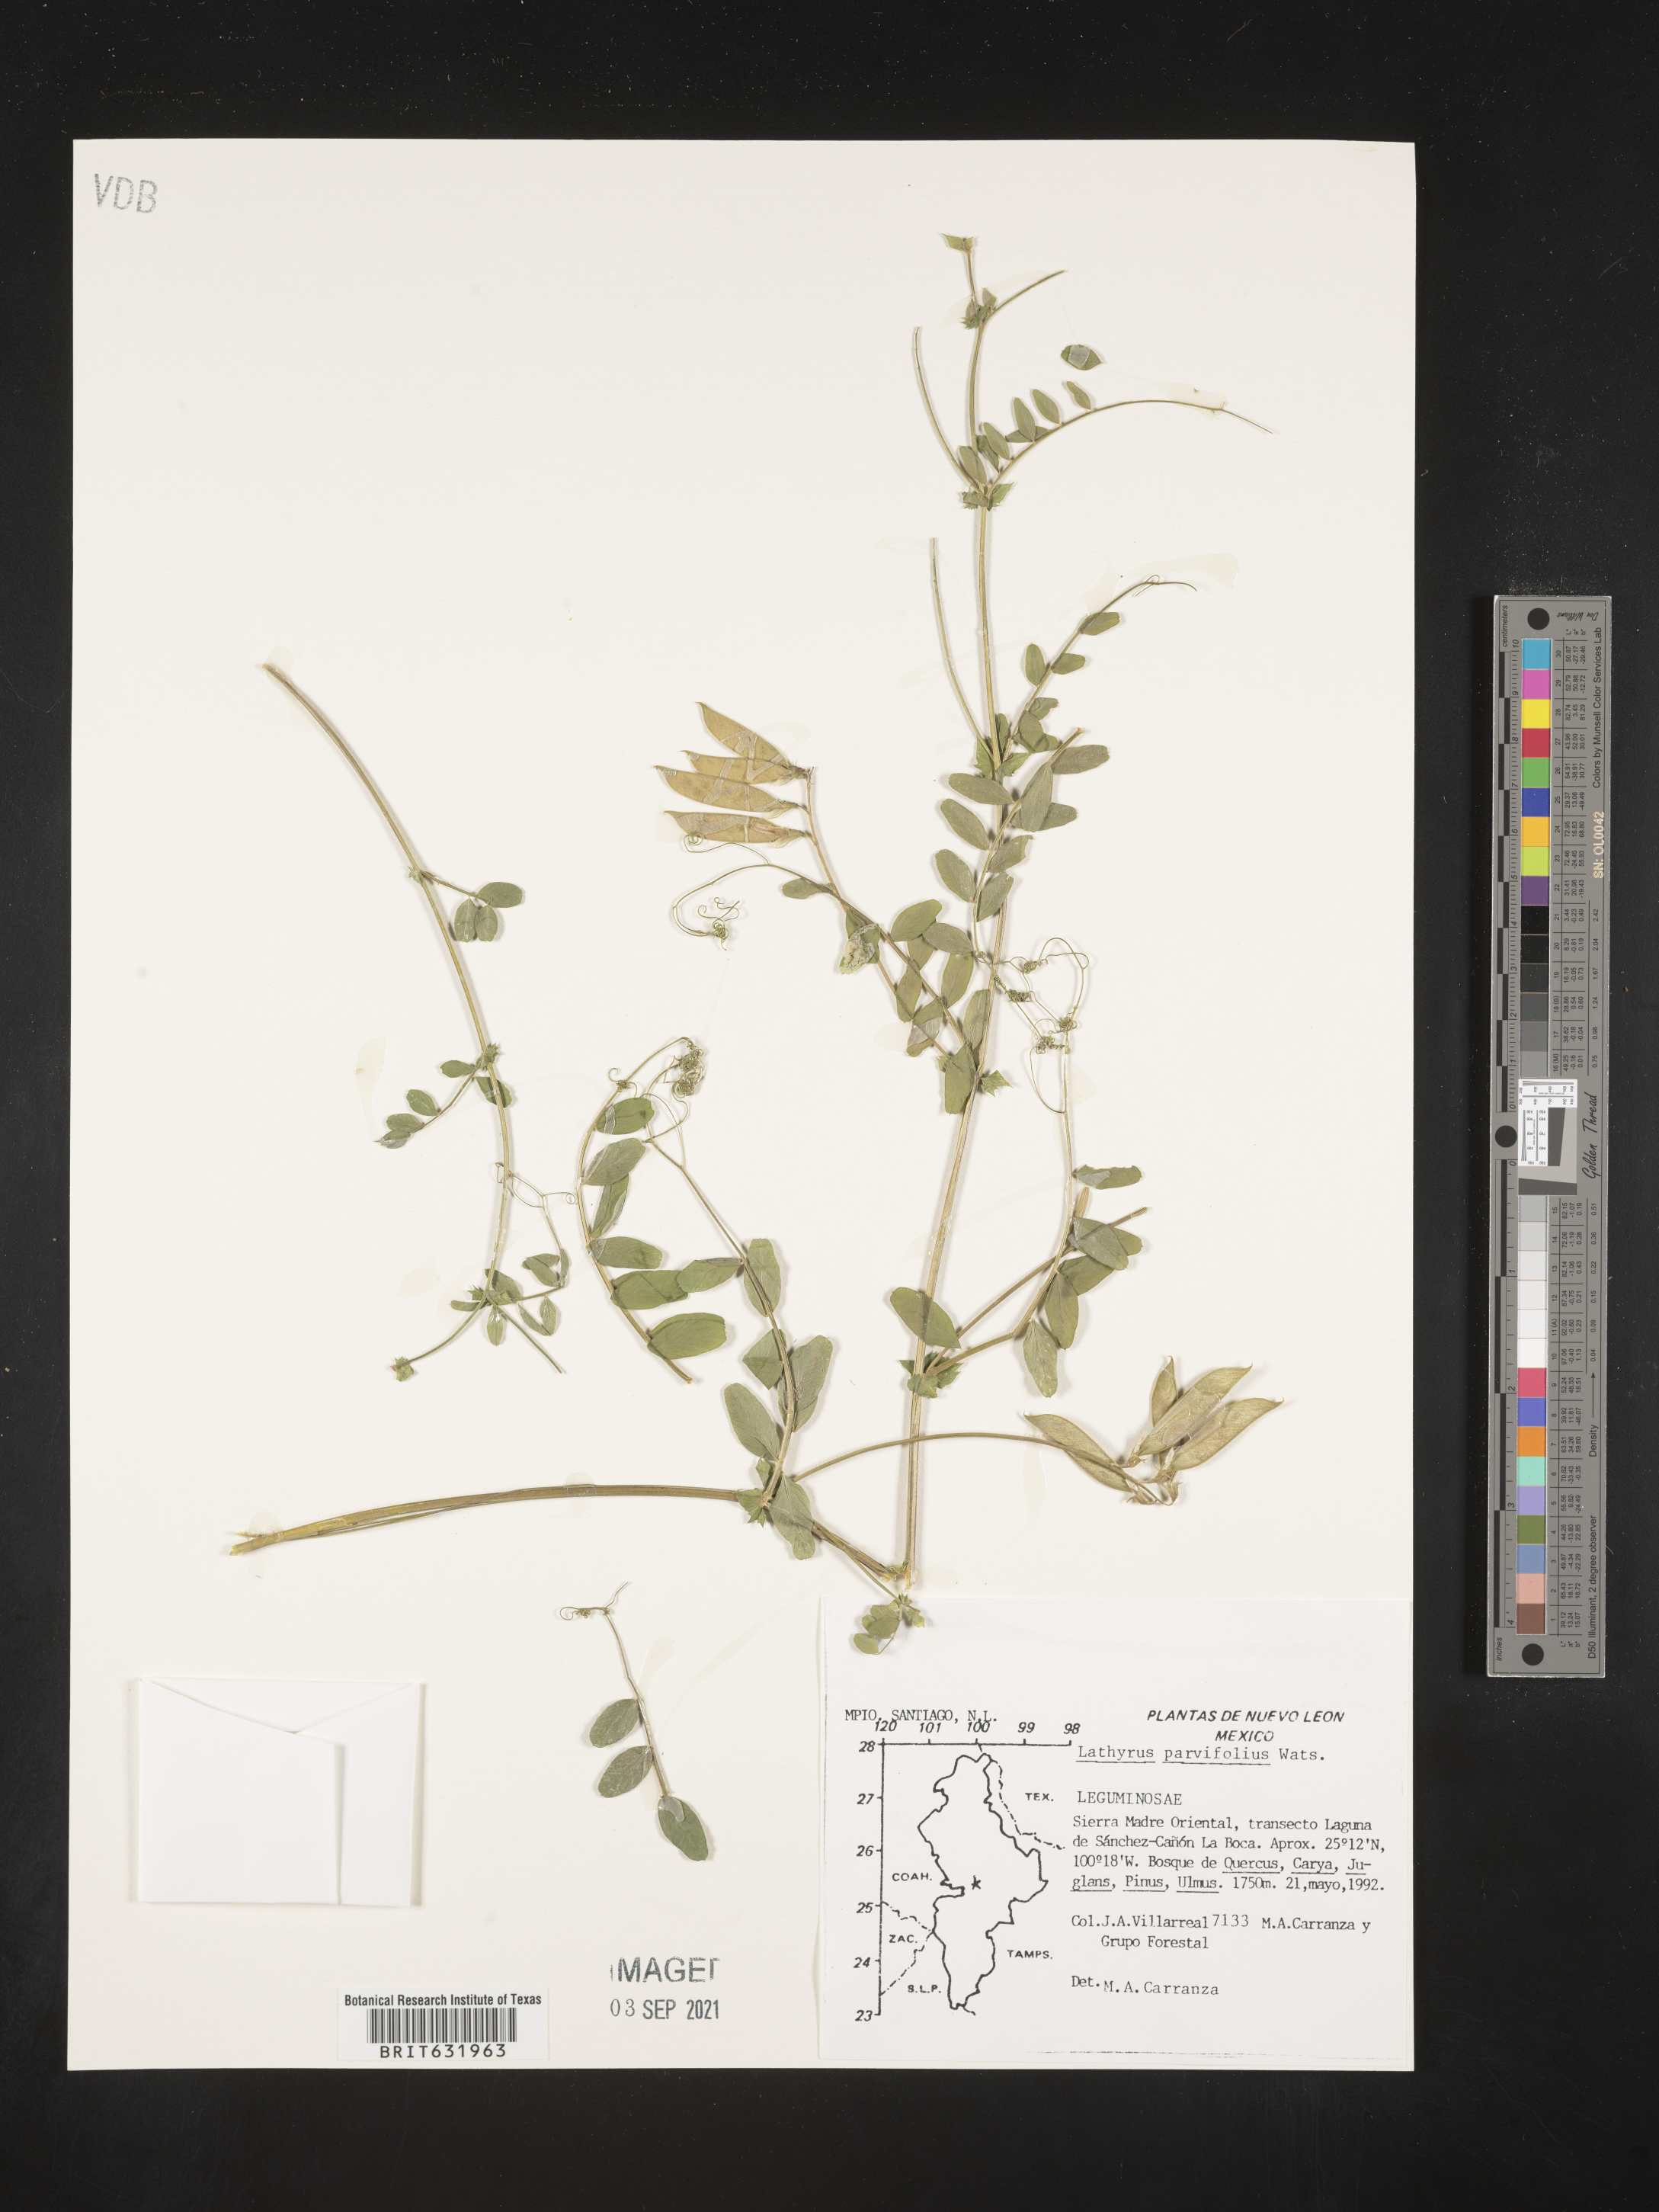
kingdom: Plantae
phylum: Tracheophyta
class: Magnoliopsida
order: Fabales
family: Fabaceae
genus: Lathyrus
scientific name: Lathyrus
